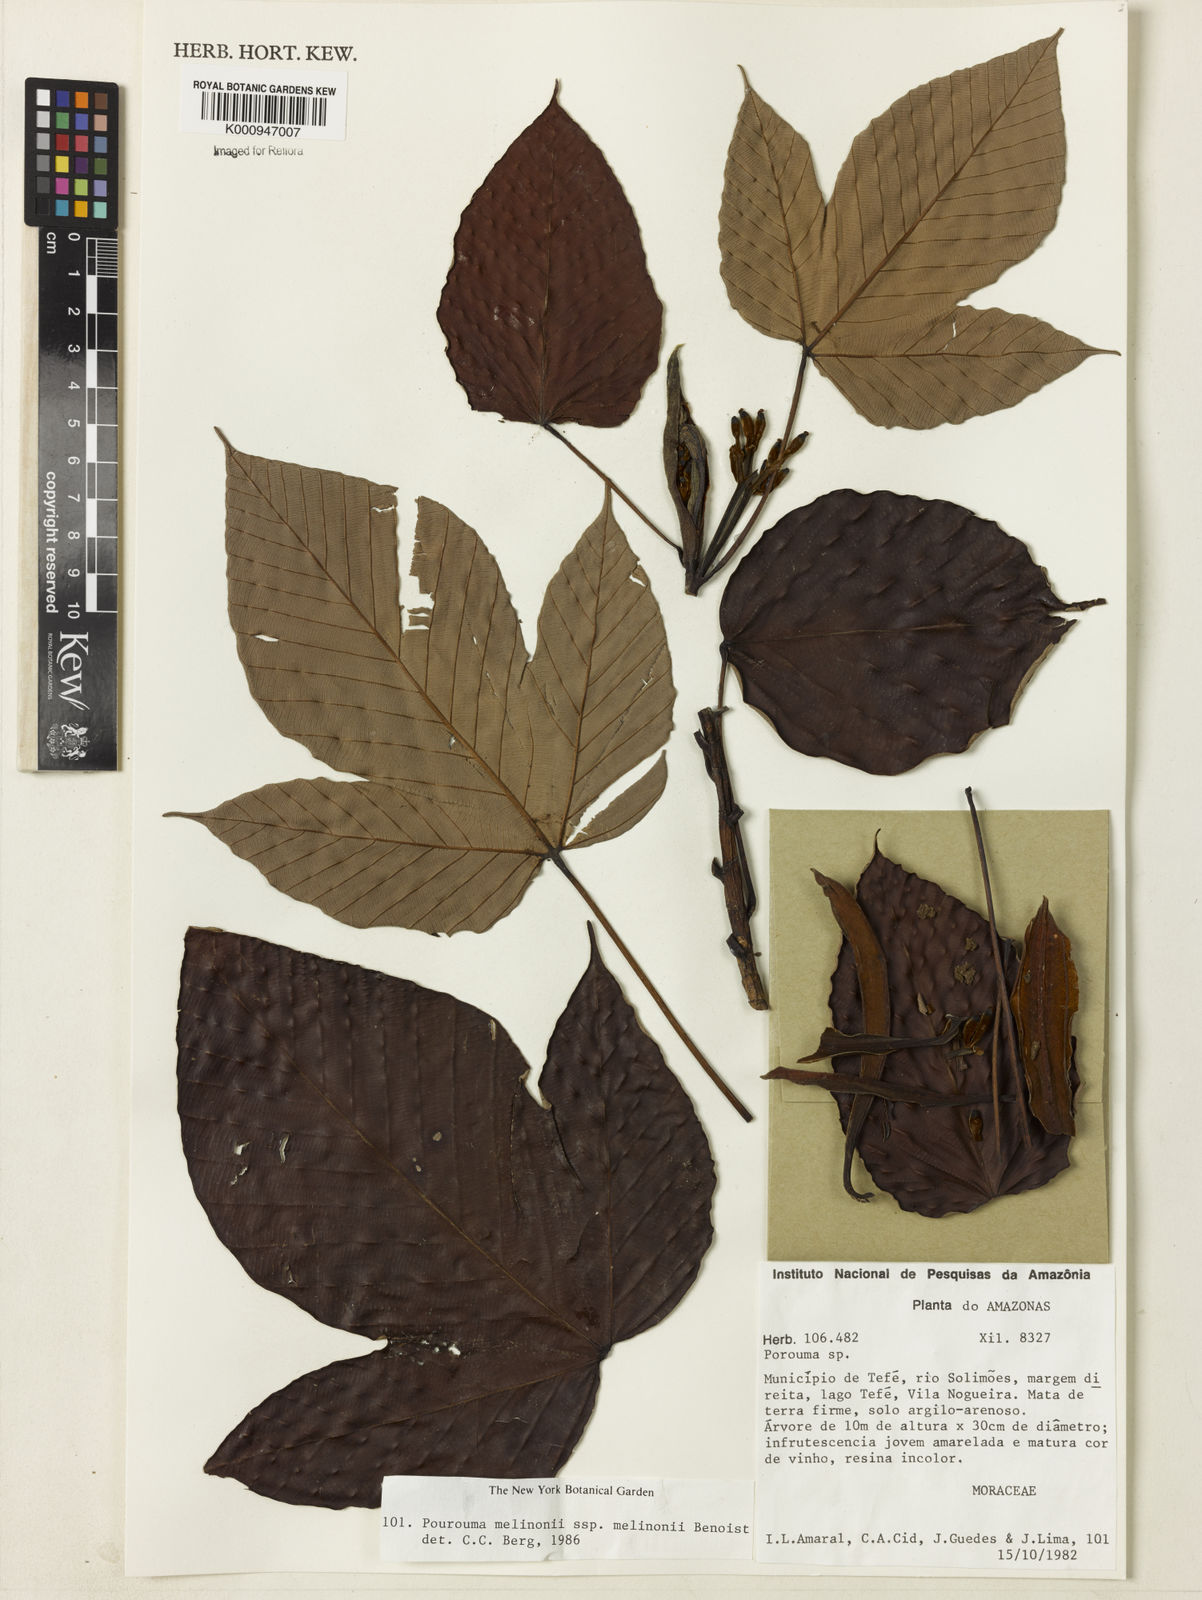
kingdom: Plantae
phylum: Tracheophyta
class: Magnoliopsida
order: Rosales
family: Urticaceae
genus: Pourouma
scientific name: Pourouma melinonii
